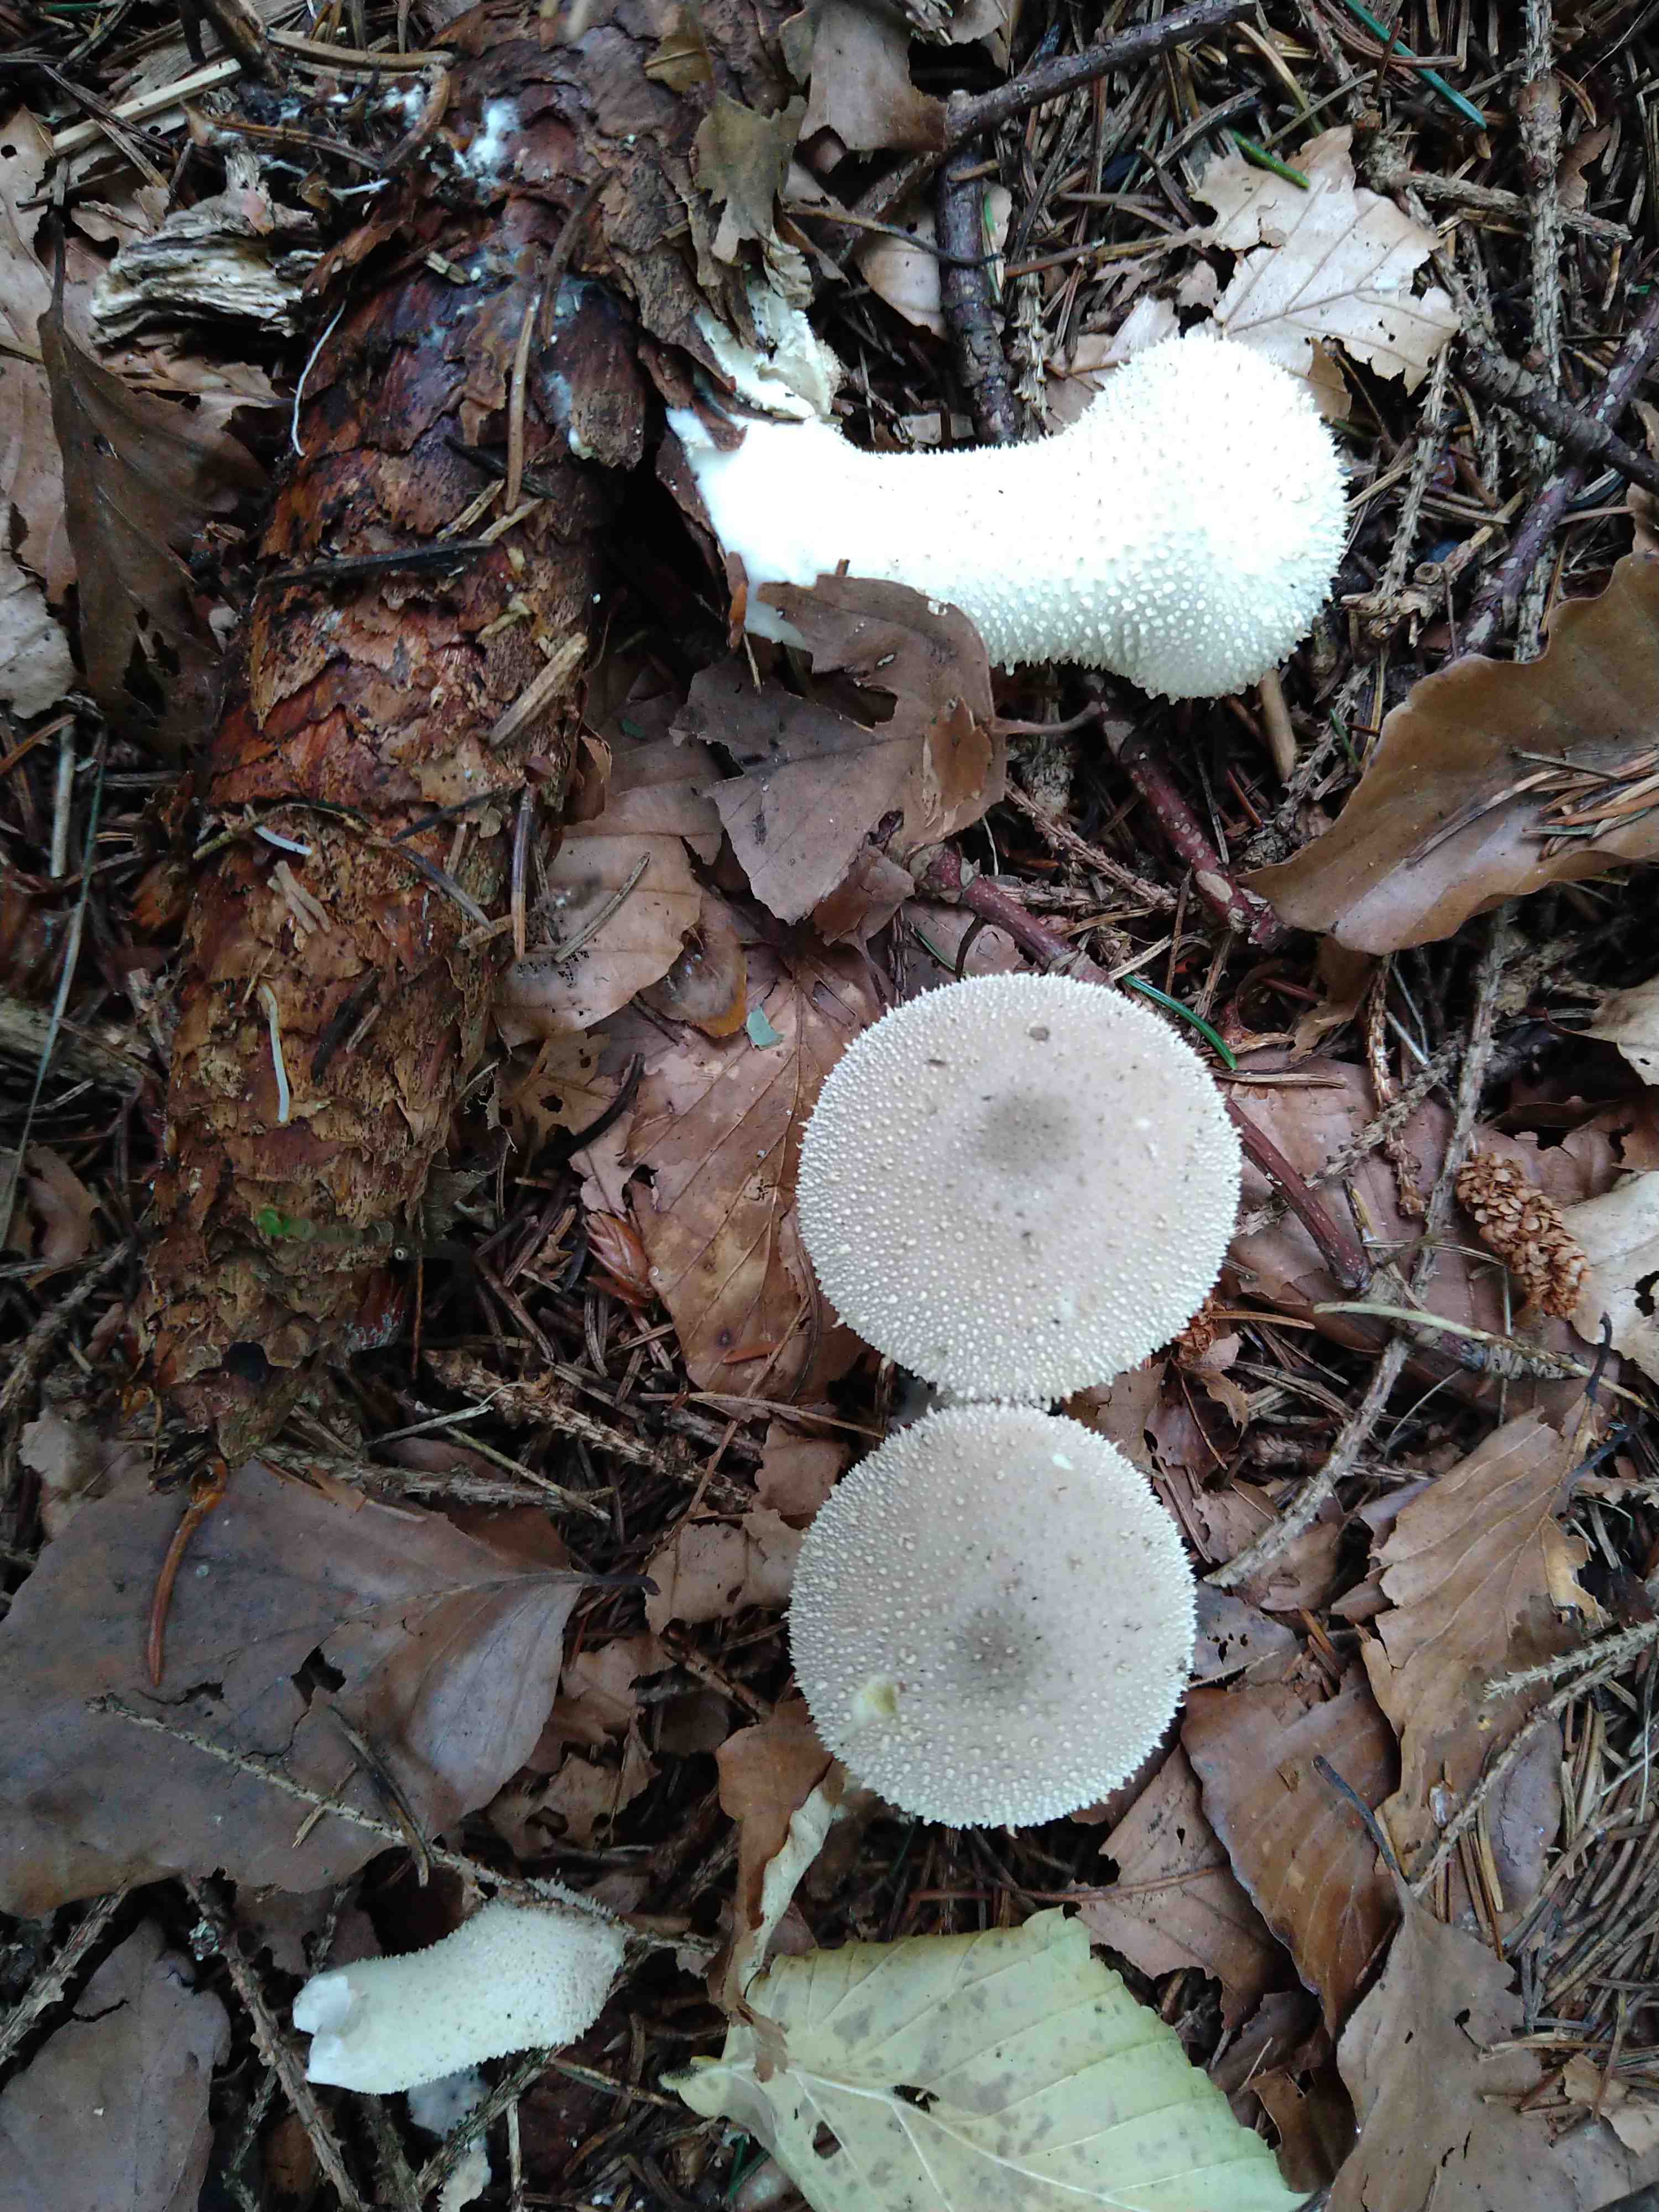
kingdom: Fungi
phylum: Basidiomycota
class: Agaricomycetes
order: Agaricales
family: Lycoperdaceae
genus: Lycoperdon
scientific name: Lycoperdon perlatum
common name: krystal-støvbold
